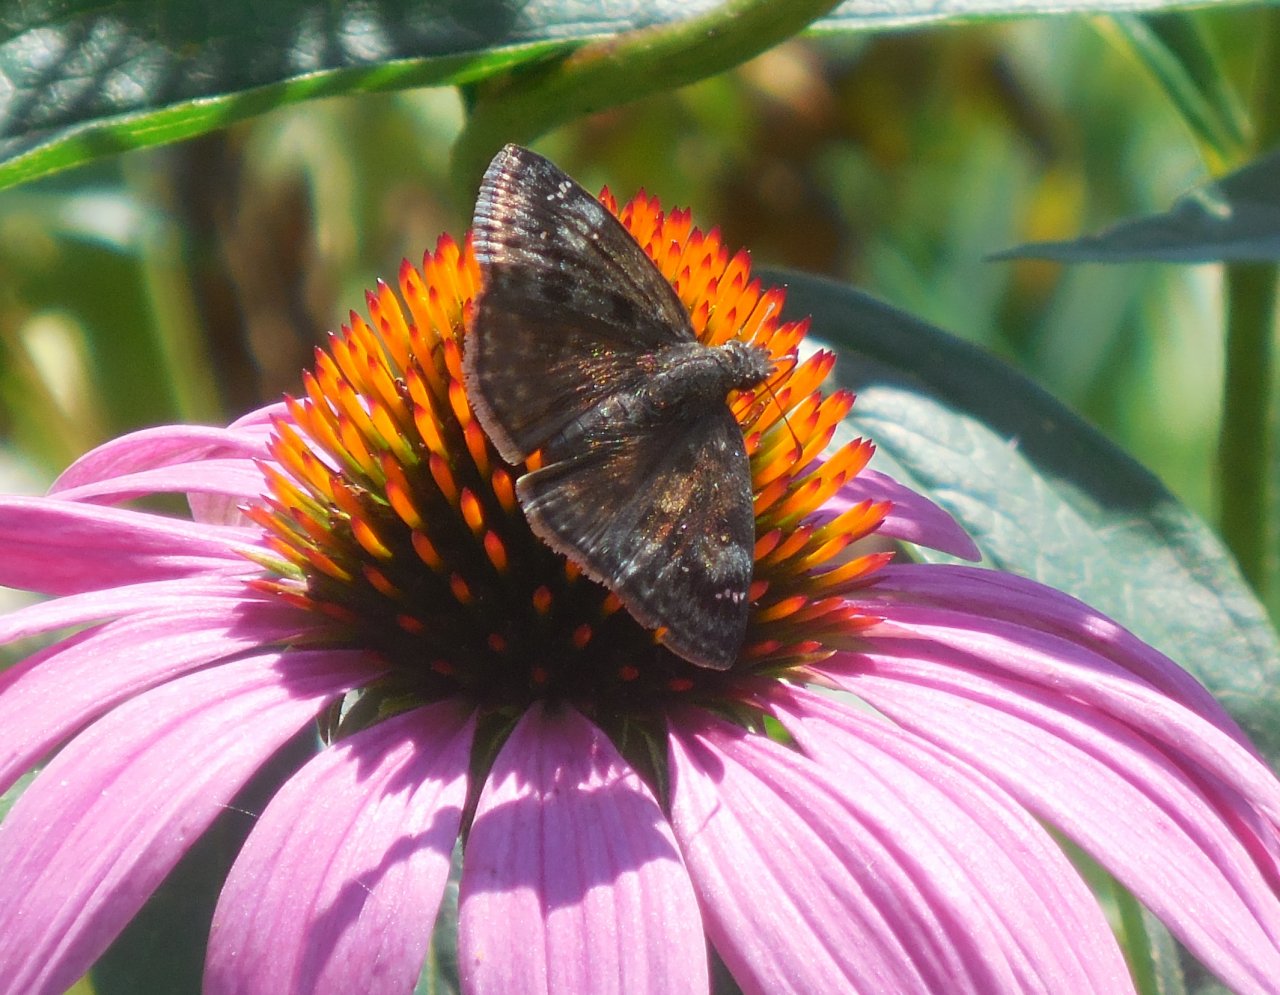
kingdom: Animalia
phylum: Arthropoda
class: Insecta
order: Lepidoptera
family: Hesperiidae
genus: Gesta
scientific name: Gesta
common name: Wild Indigo Duskywing
